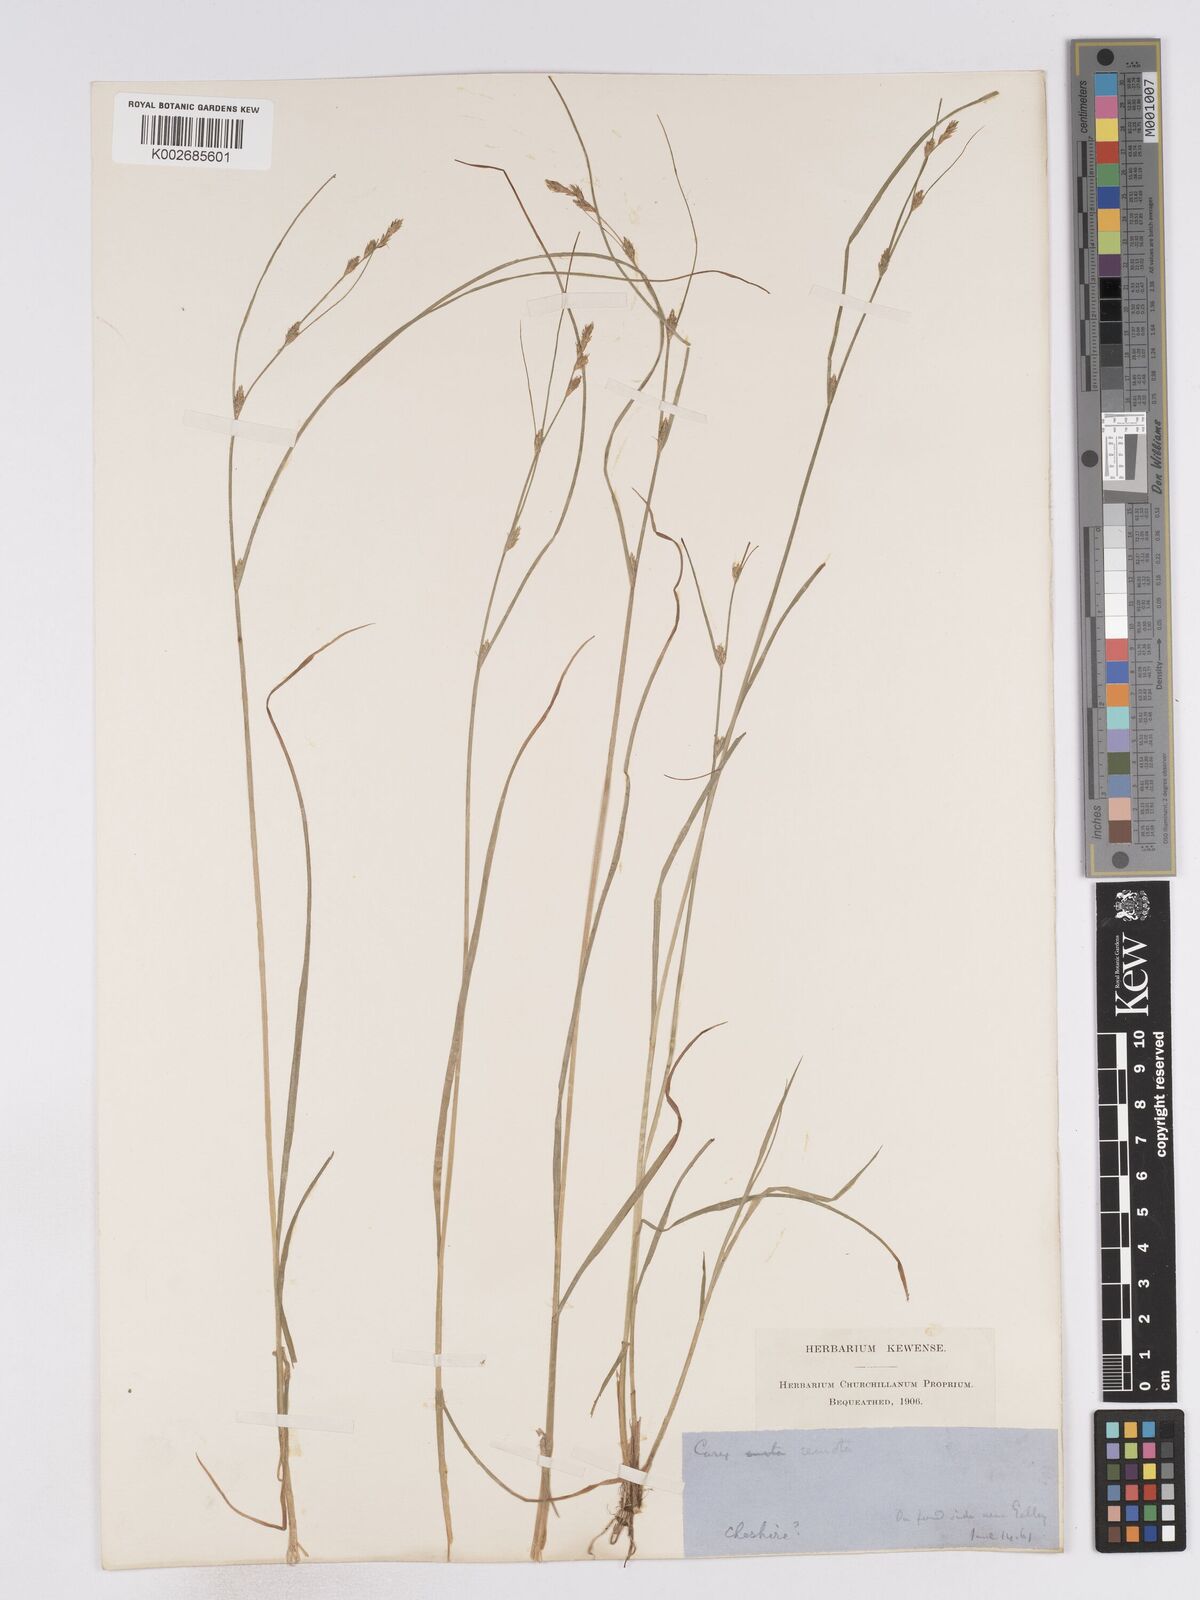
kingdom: Plantae
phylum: Tracheophyta
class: Liliopsida
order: Poales
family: Cyperaceae
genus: Carex
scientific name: Carex remota
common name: Remote sedge
